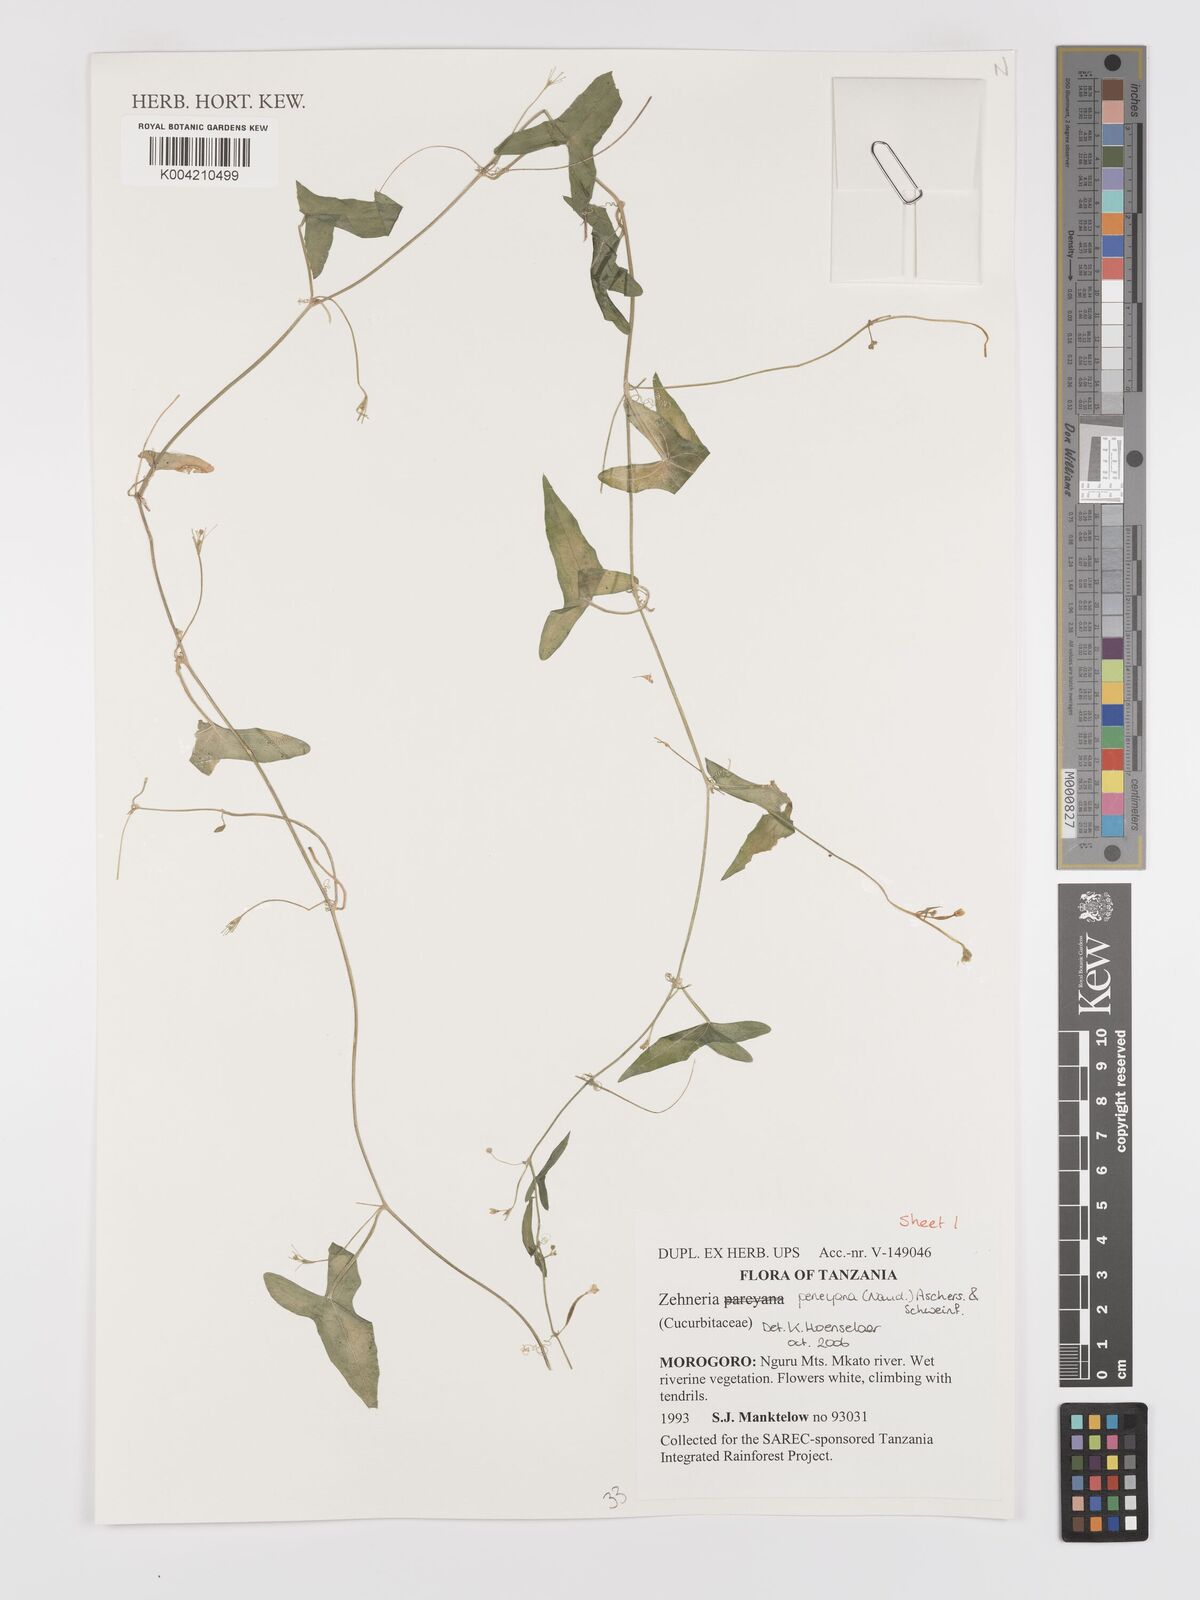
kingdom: Plantae
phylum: Tracheophyta
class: Magnoliopsida
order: Cucurbitales
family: Cucurbitaceae
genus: Zehneria
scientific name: Zehneria peneyana
